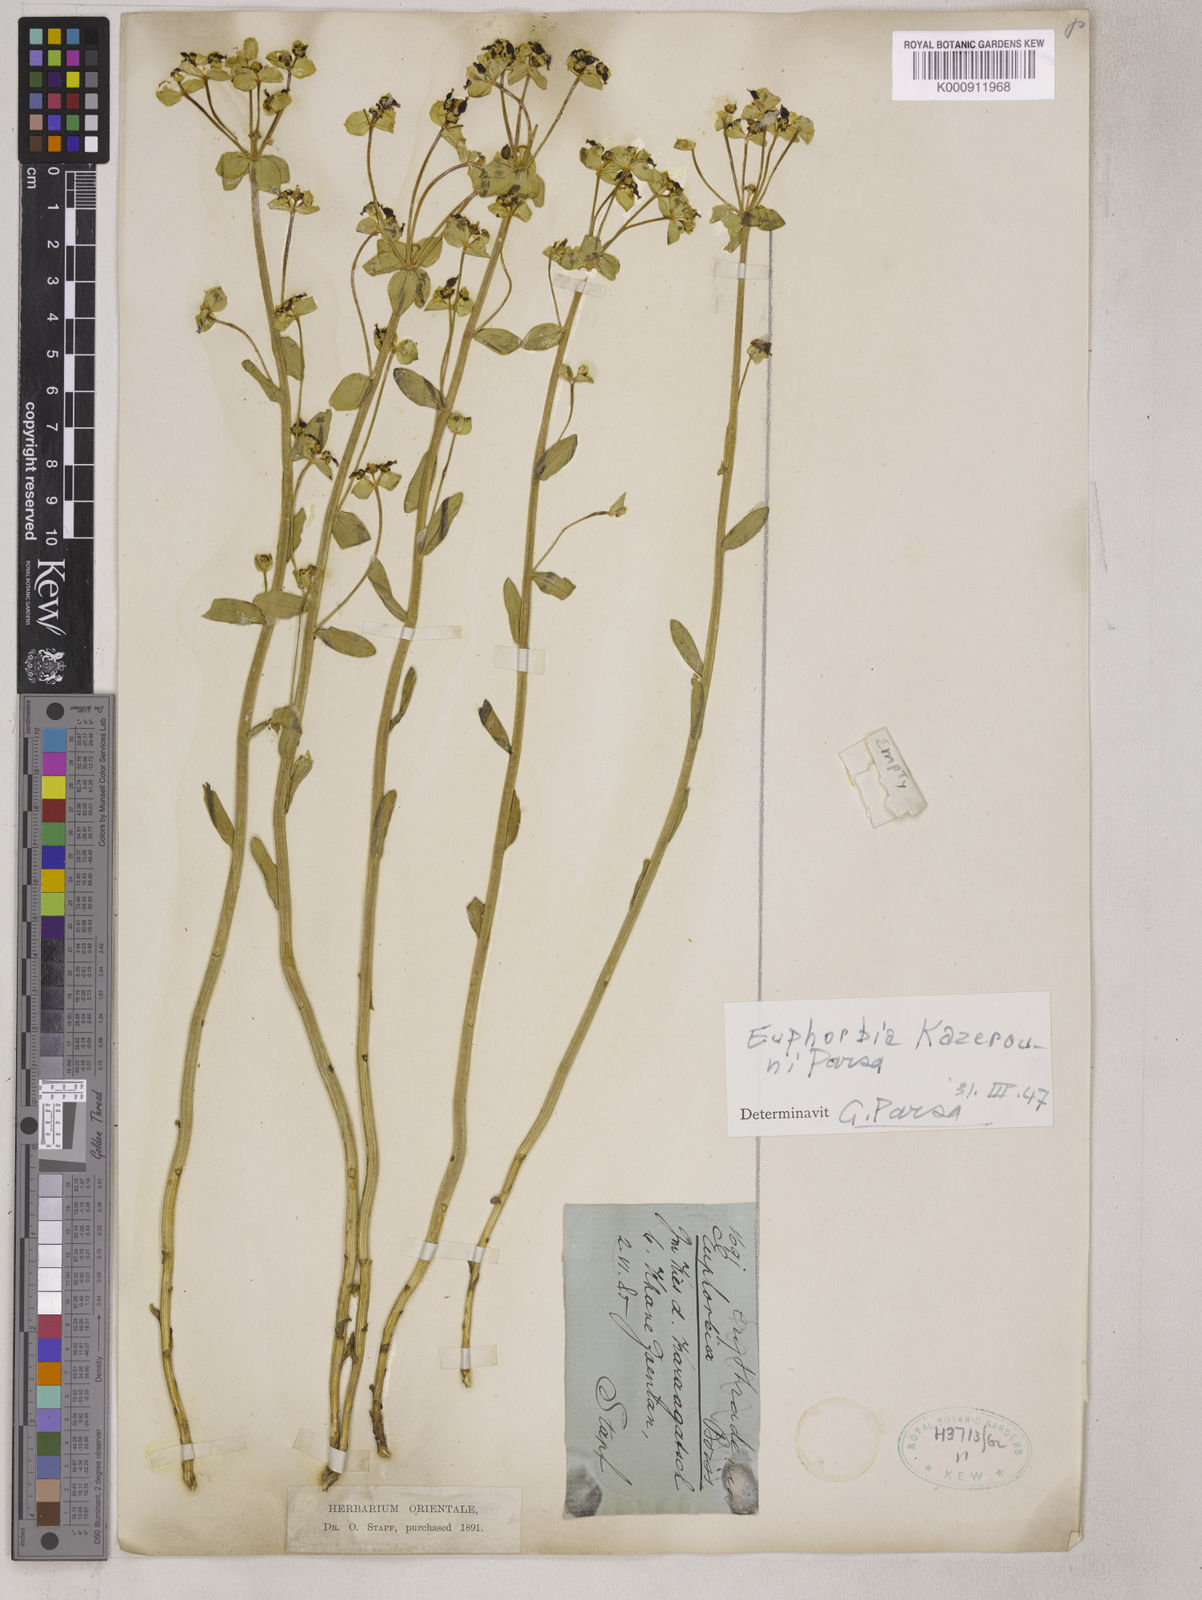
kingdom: Plantae
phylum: Tracheophyta
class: Magnoliopsida
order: Malpighiales
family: Euphorbiaceae
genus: Euphorbia
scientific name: Euphorbia microsciadia
